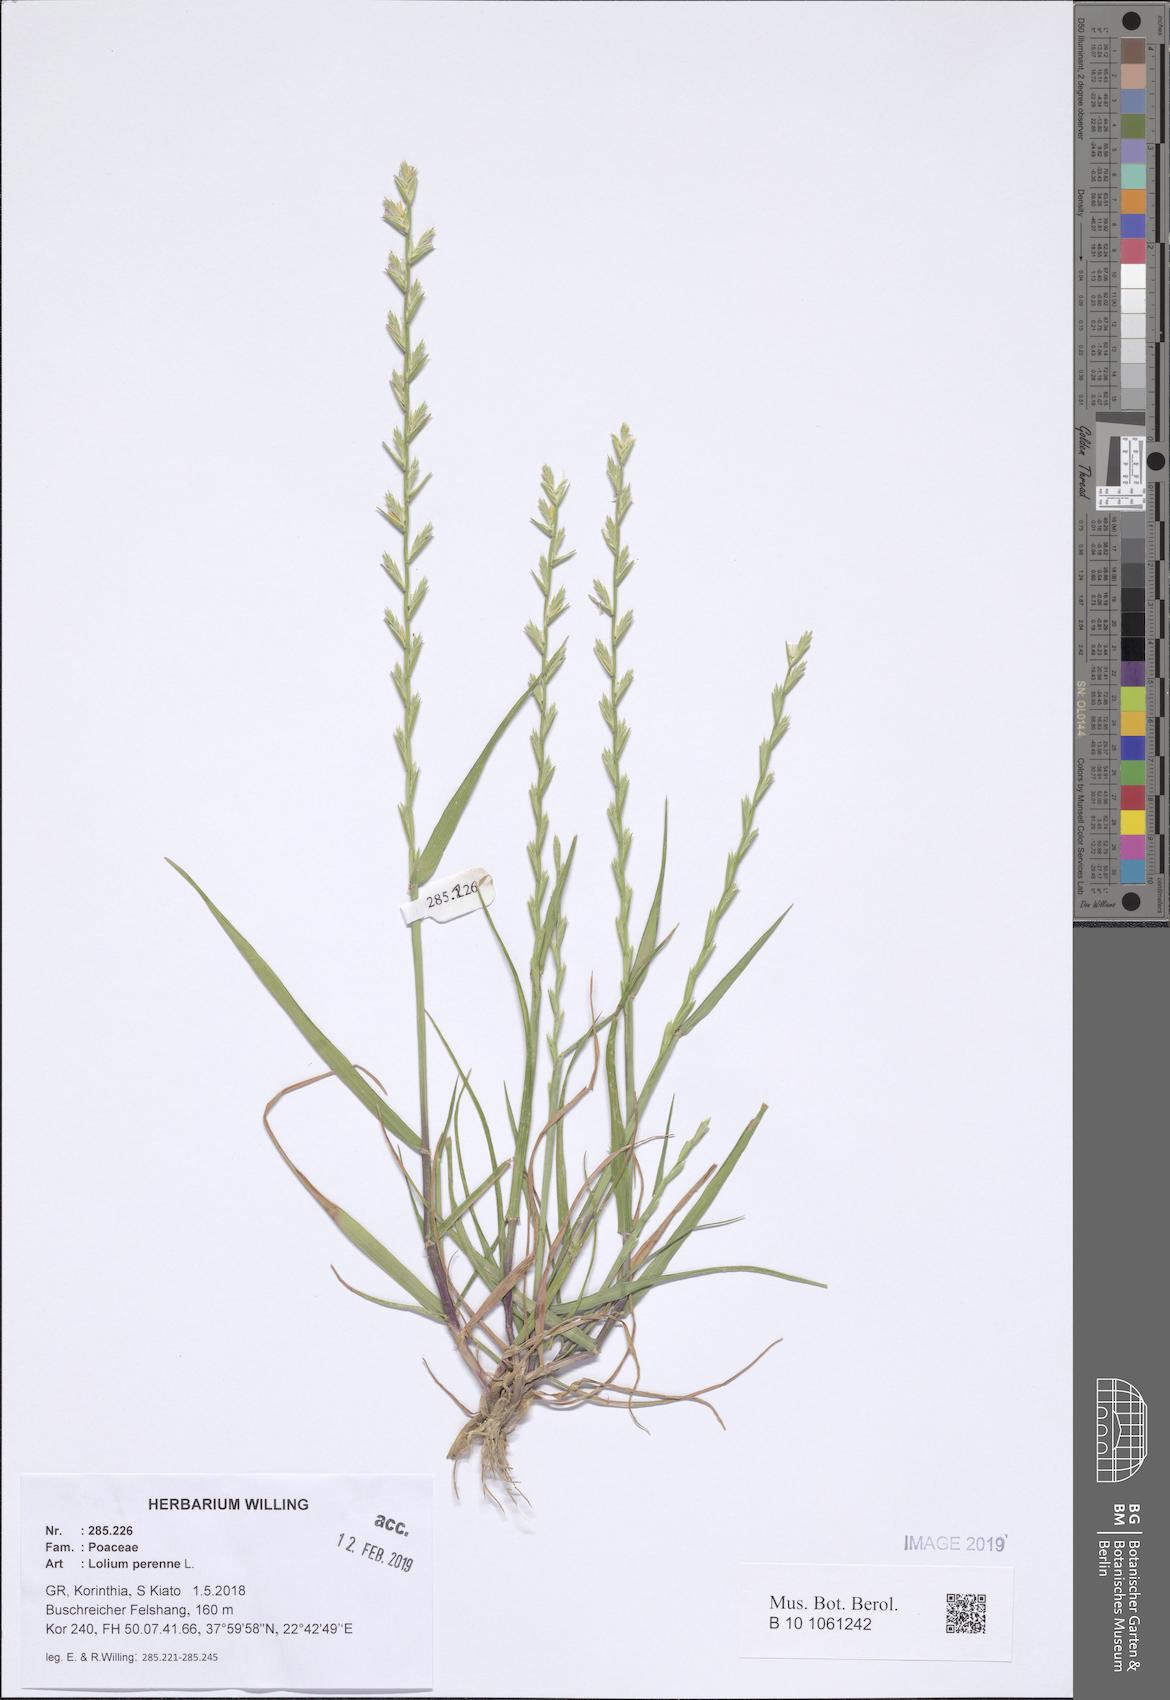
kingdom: Plantae
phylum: Tracheophyta
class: Liliopsida
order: Poales
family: Poaceae
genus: Lolium
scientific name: Lolium perenne
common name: Perennial ryegrass
